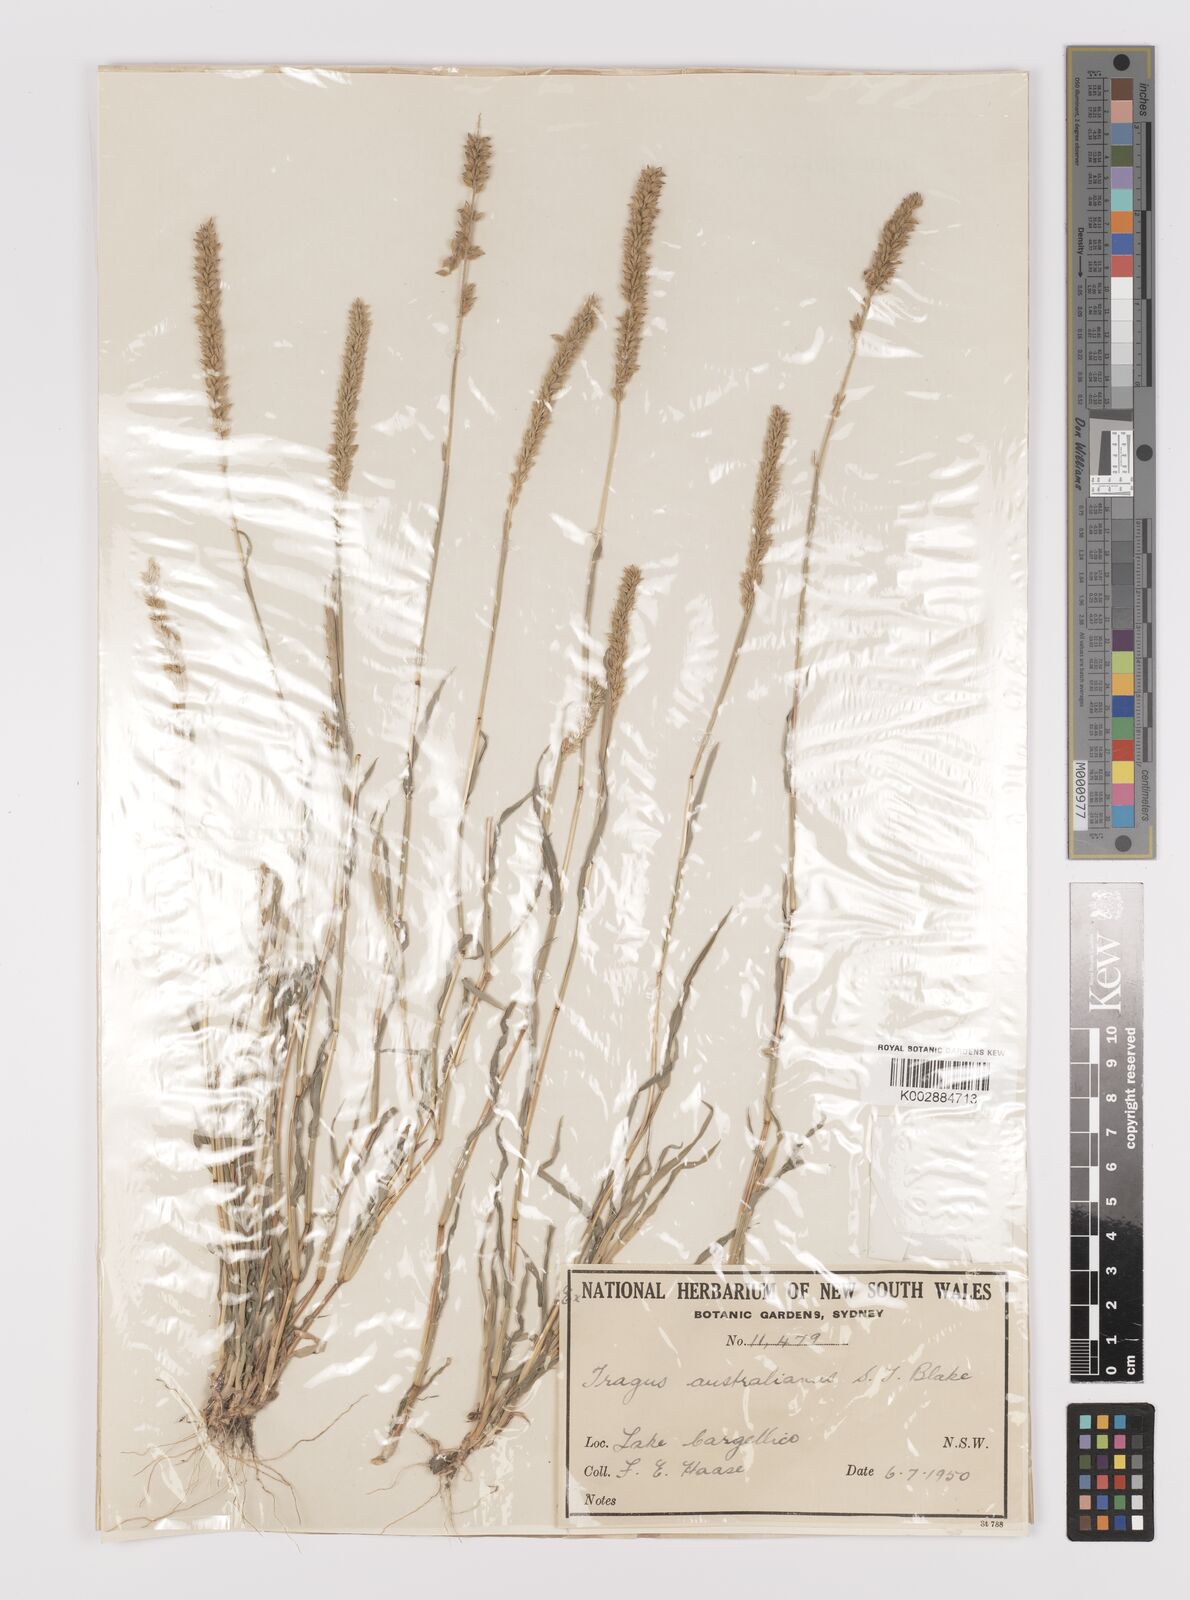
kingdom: Plantae
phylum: Tracheophyta
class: Liliopsida
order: Poales
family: Poaceae
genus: Tragus
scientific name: Tragus australianus
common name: Australian bur-grass
